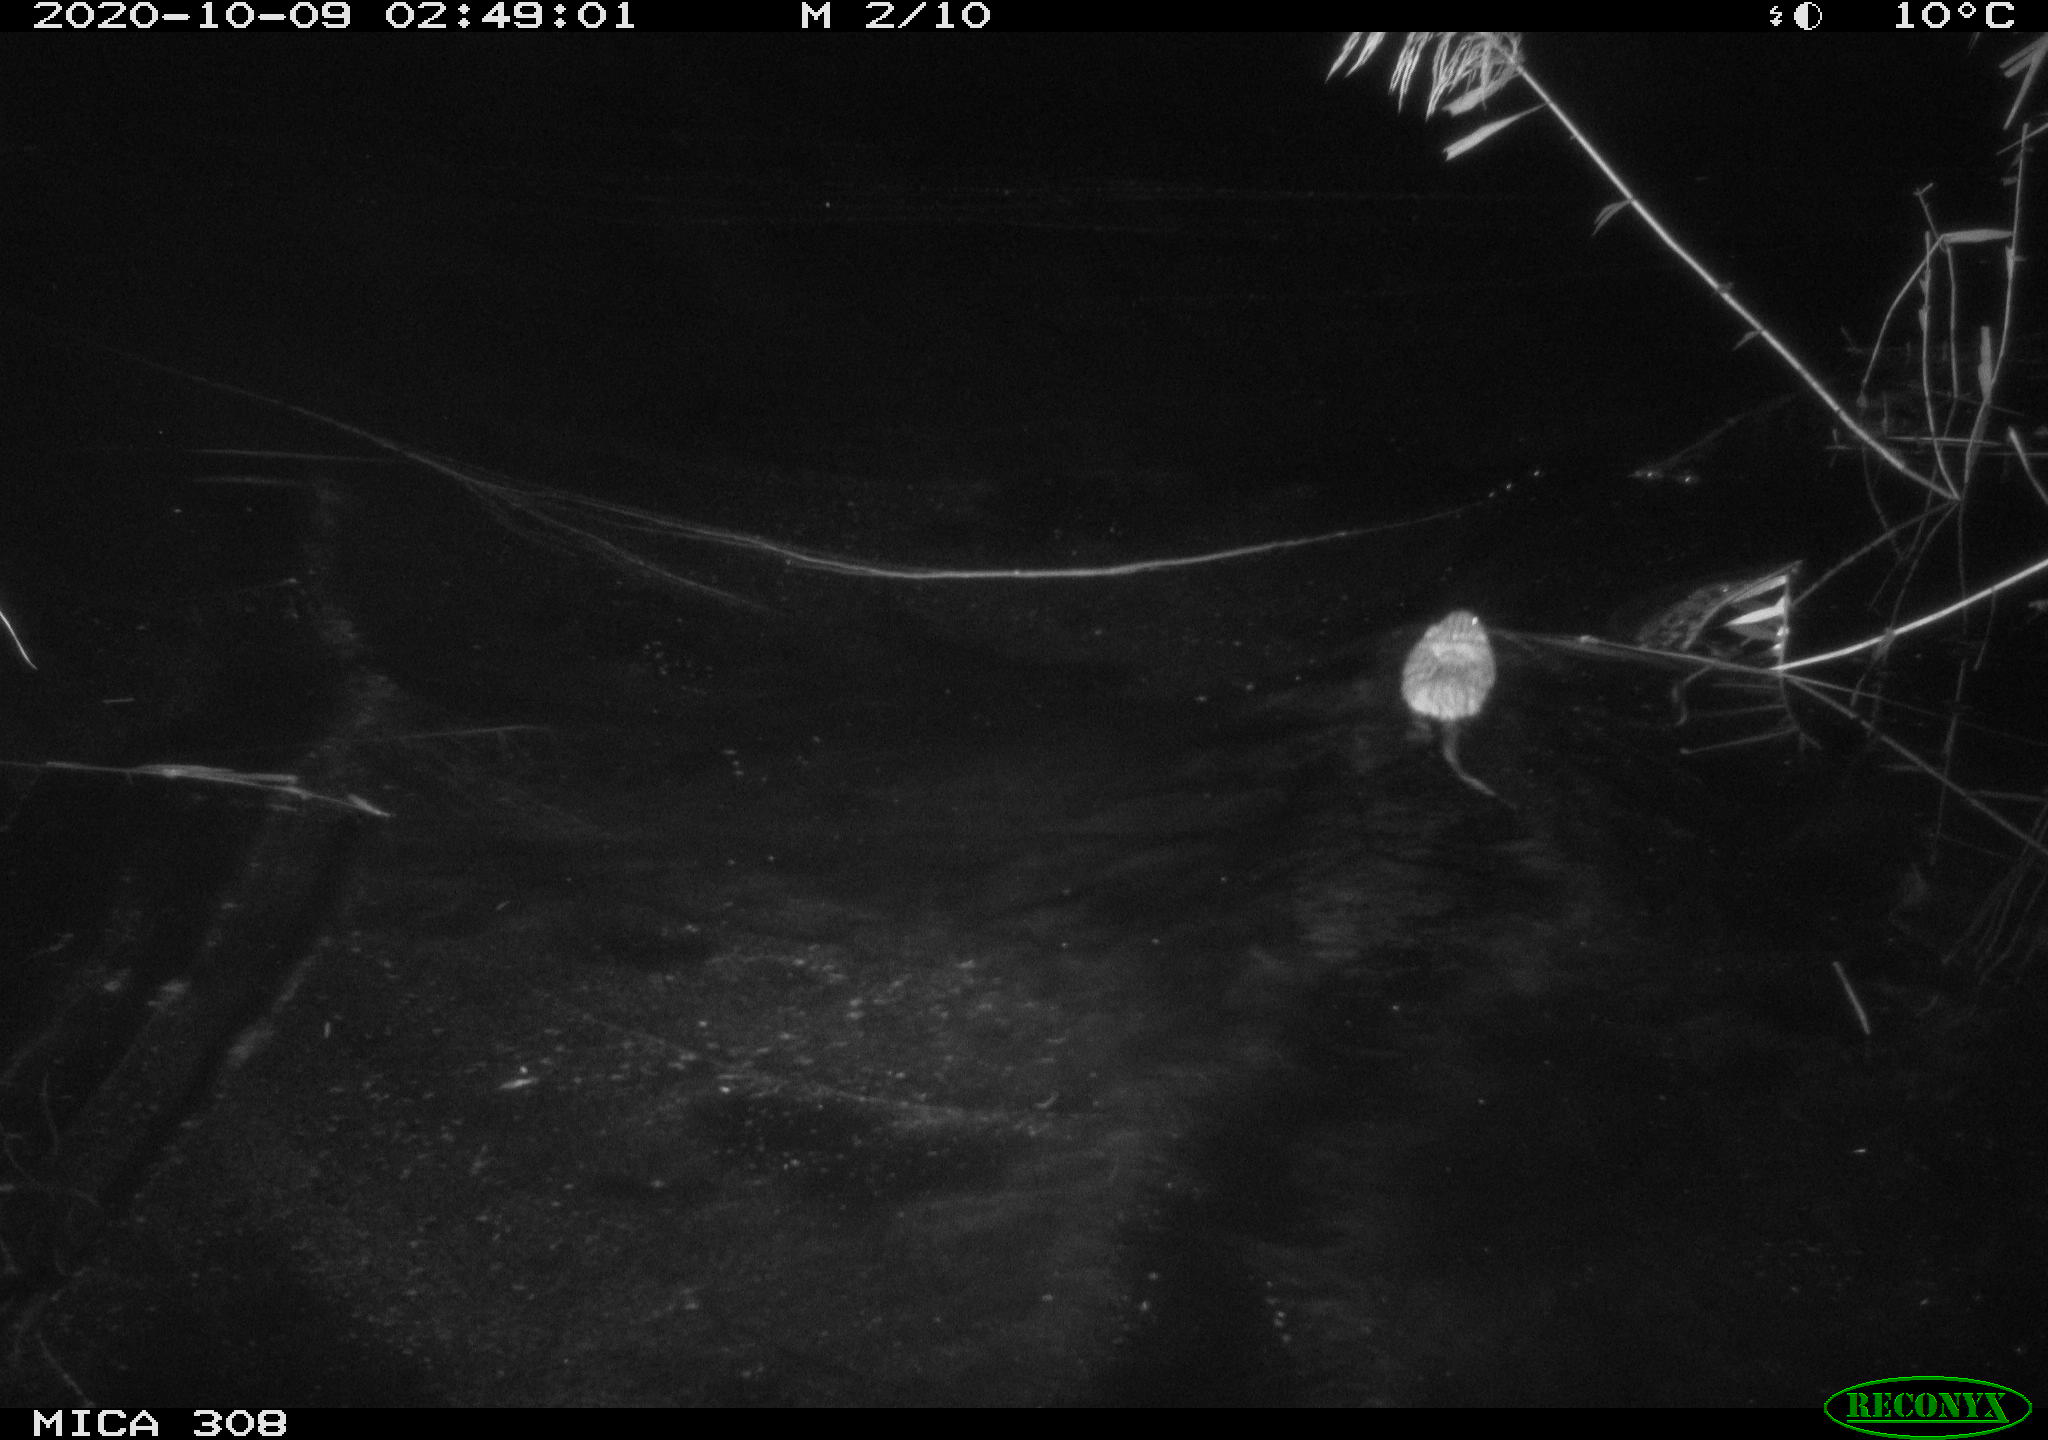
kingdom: Animalia
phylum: Chordata
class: Mammalia
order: Rodentia
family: Cricetidae
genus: Ondatra
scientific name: Ondatra zibethicus
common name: Muskrat
